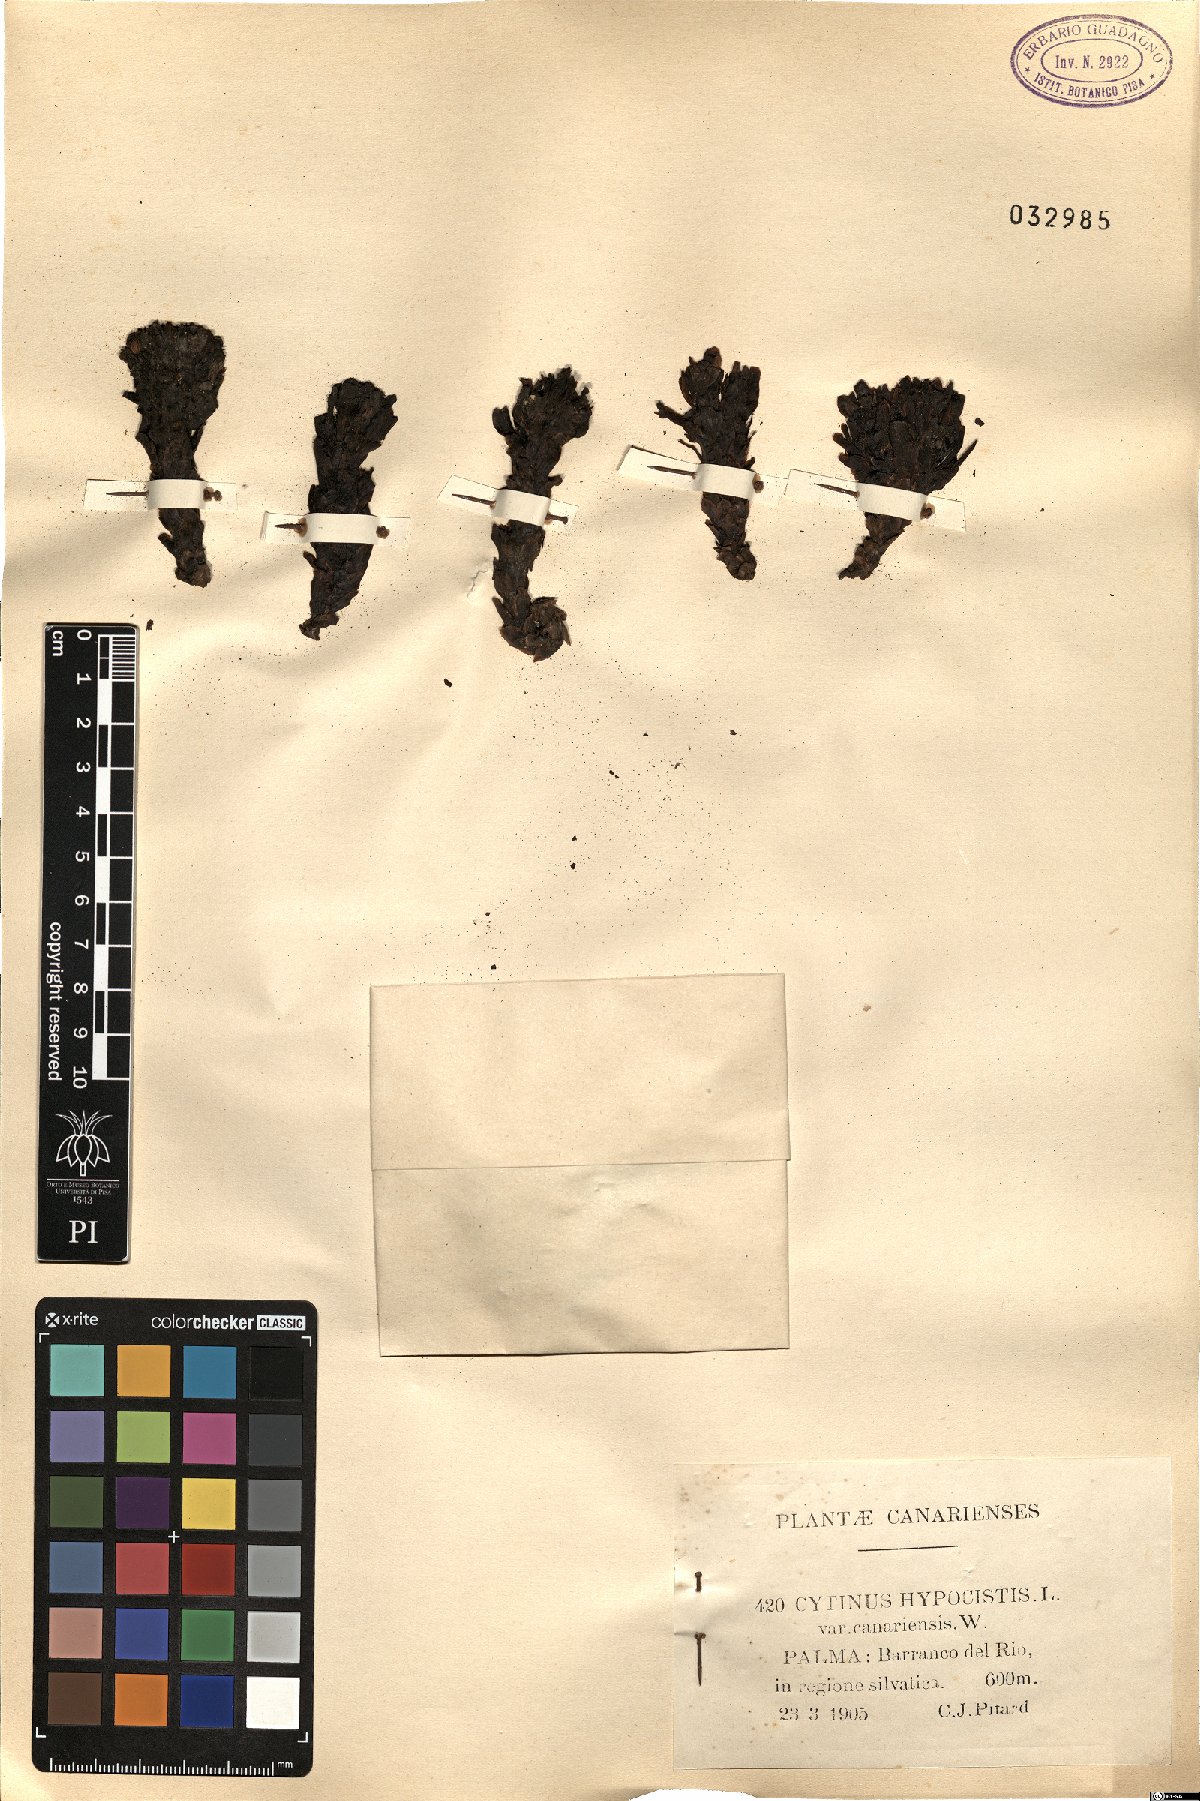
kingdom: Plantae
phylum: Tracheophyta
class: Magnoliopsida
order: Malvales
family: Cytinaceae
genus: Cytinus
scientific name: Cytinus hypocistis
